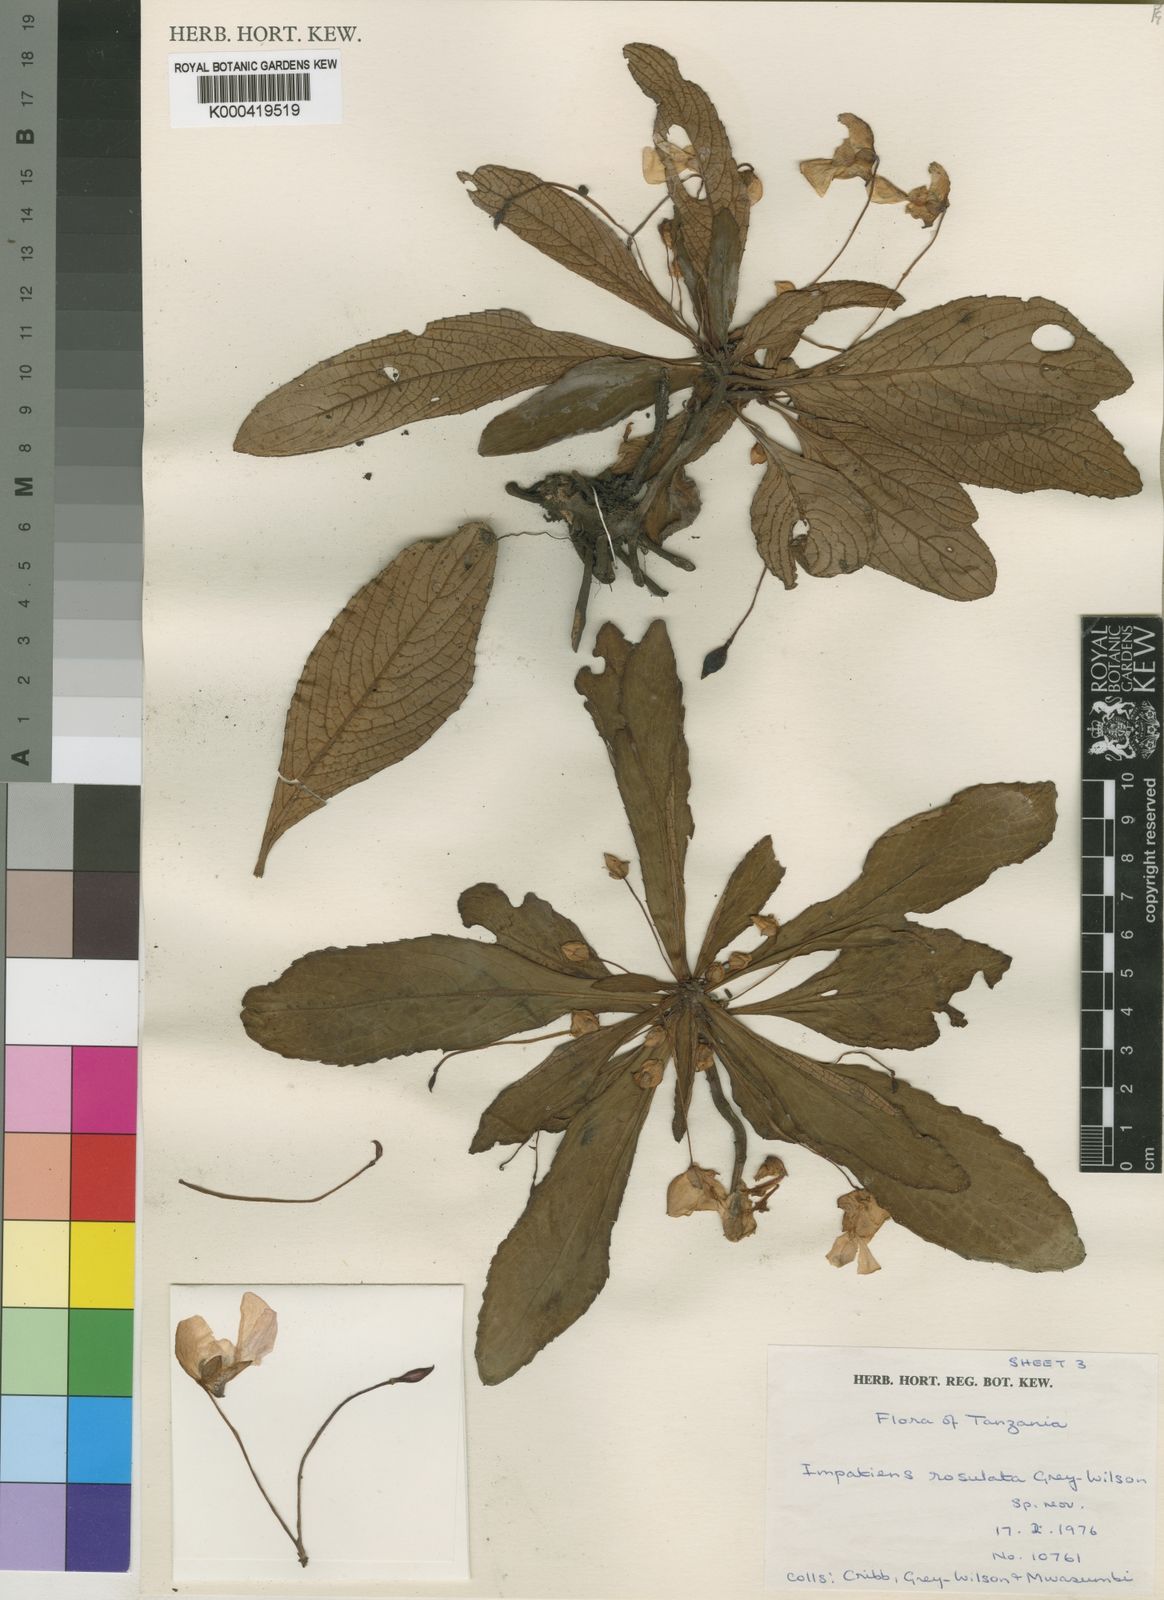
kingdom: Plantae
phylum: Tracheophyta
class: Magnoliopsida
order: Ericales
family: Balsaminaceae
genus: Impatiens
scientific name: Impatiens rosulata
